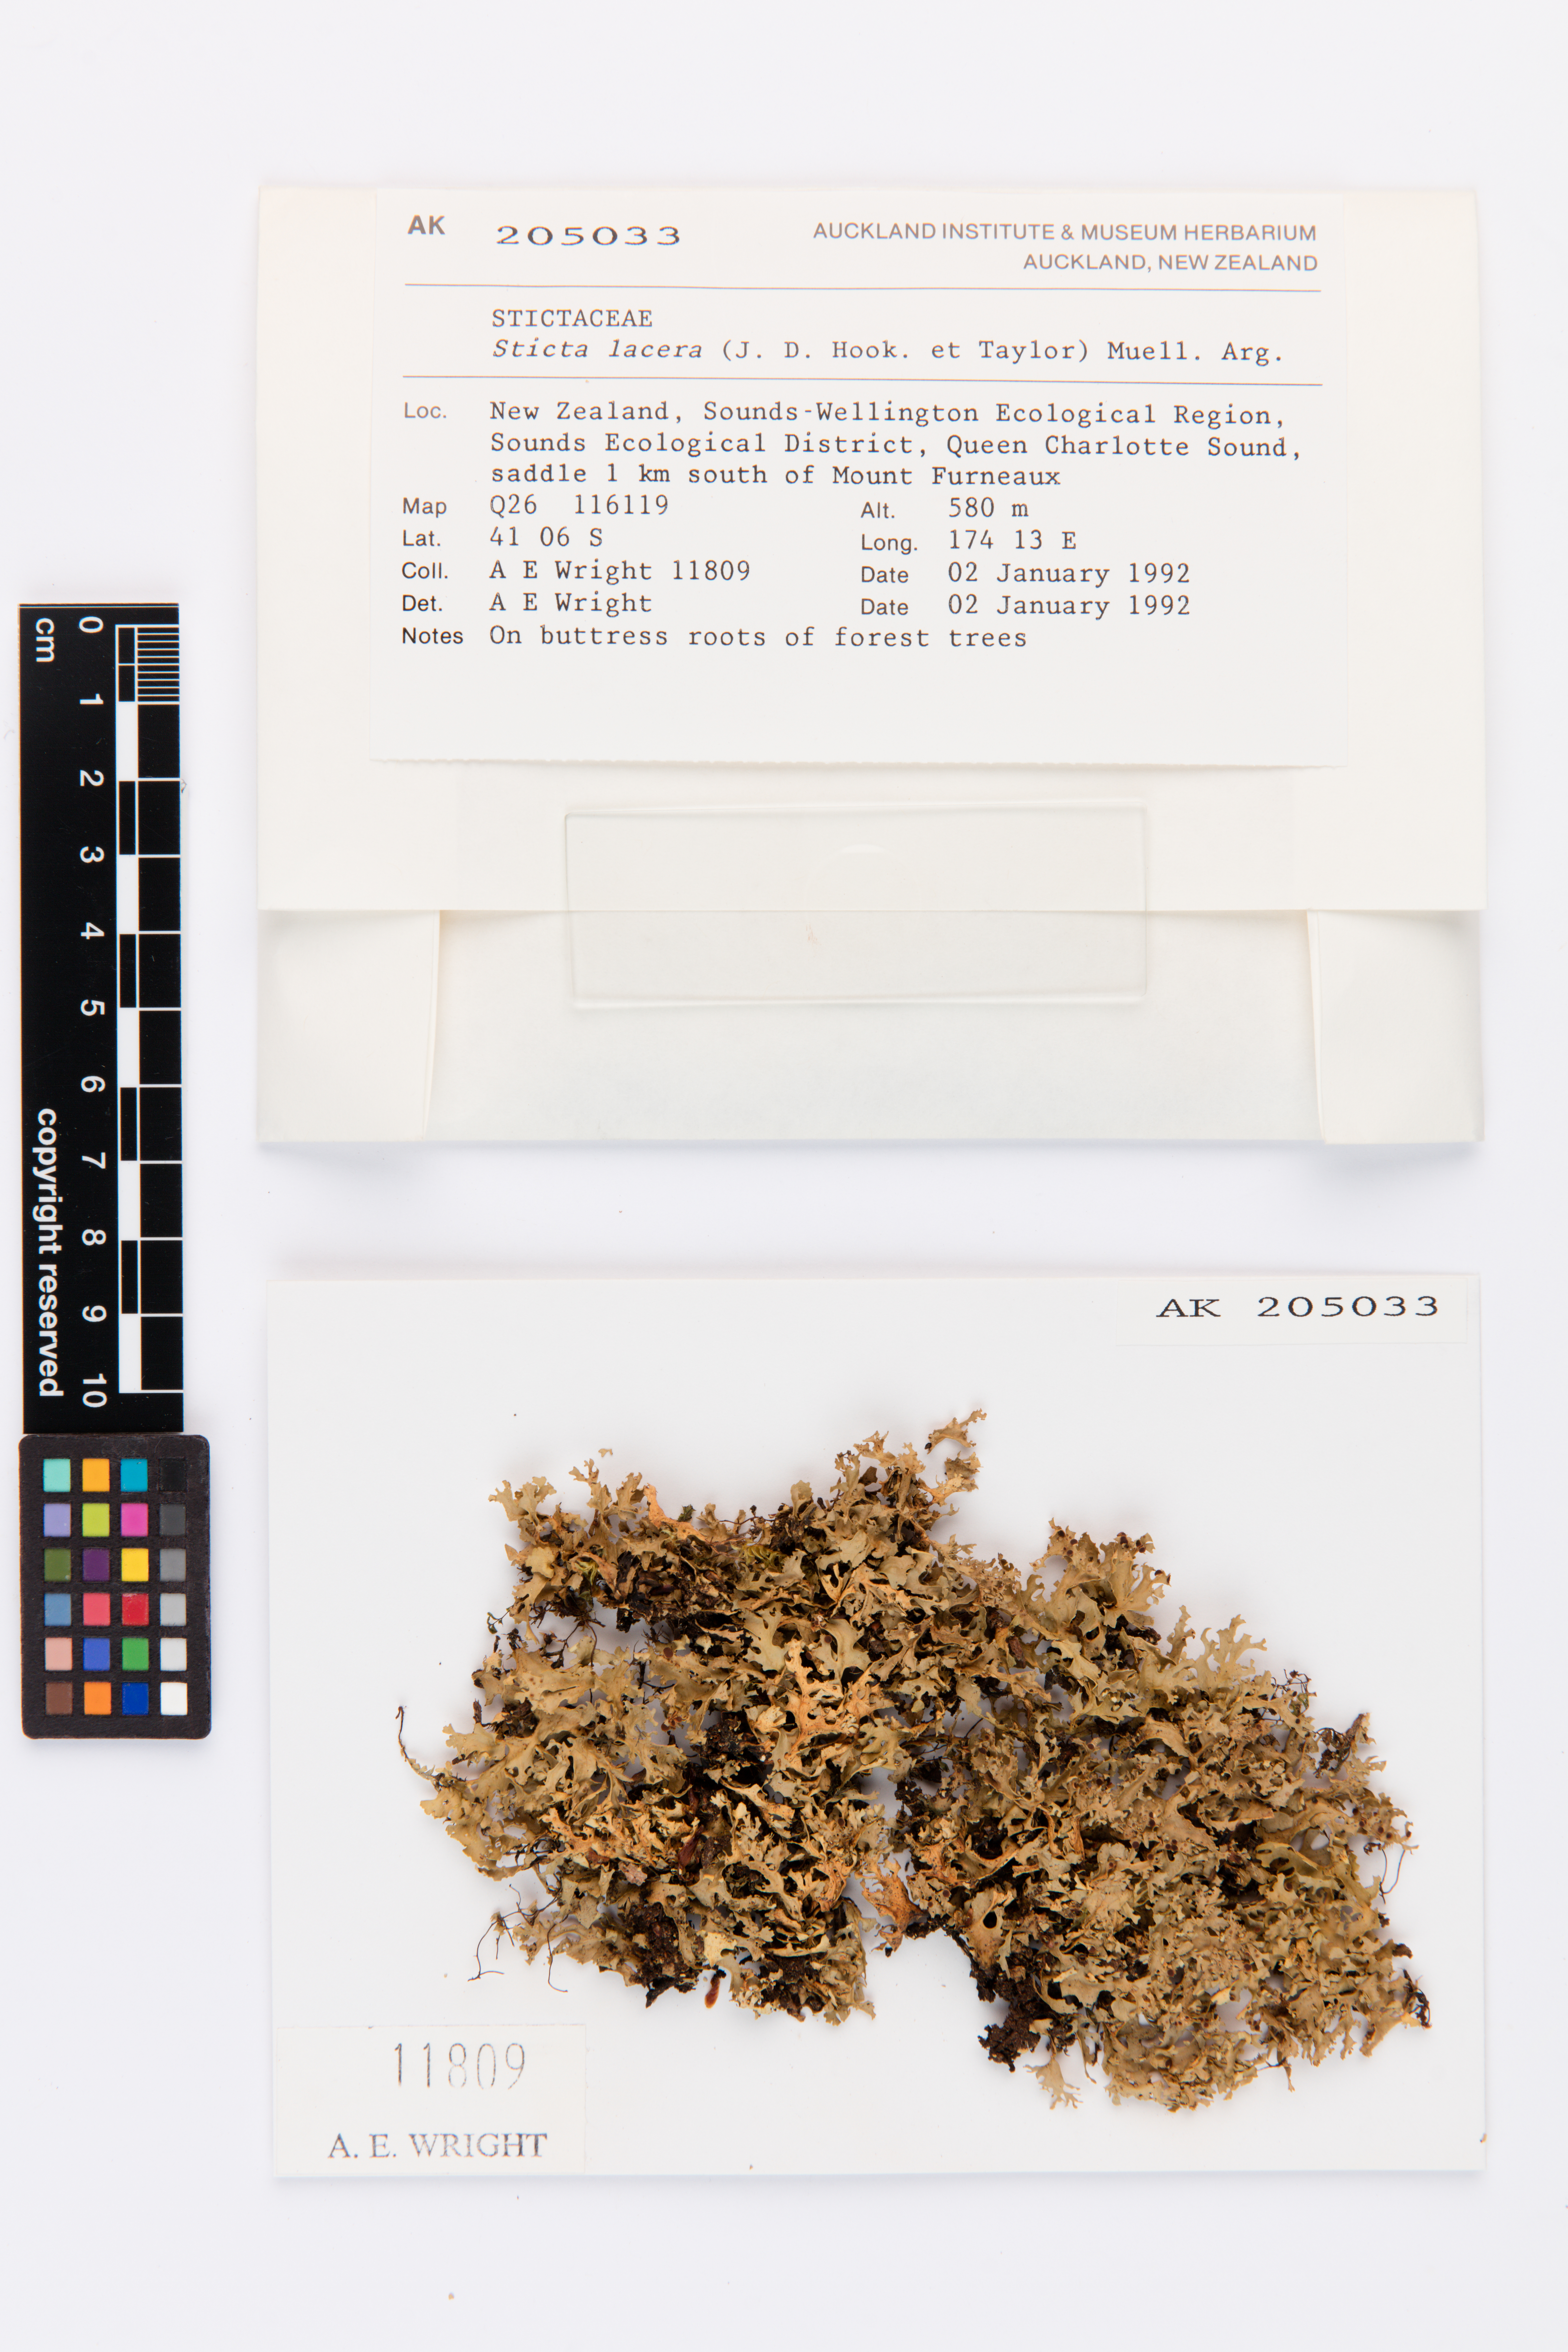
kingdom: Fungi
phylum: Ascomycota
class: Lecanoromycetes
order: Peltigerales
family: Lobariaceae
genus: Sticta
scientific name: Sticta
